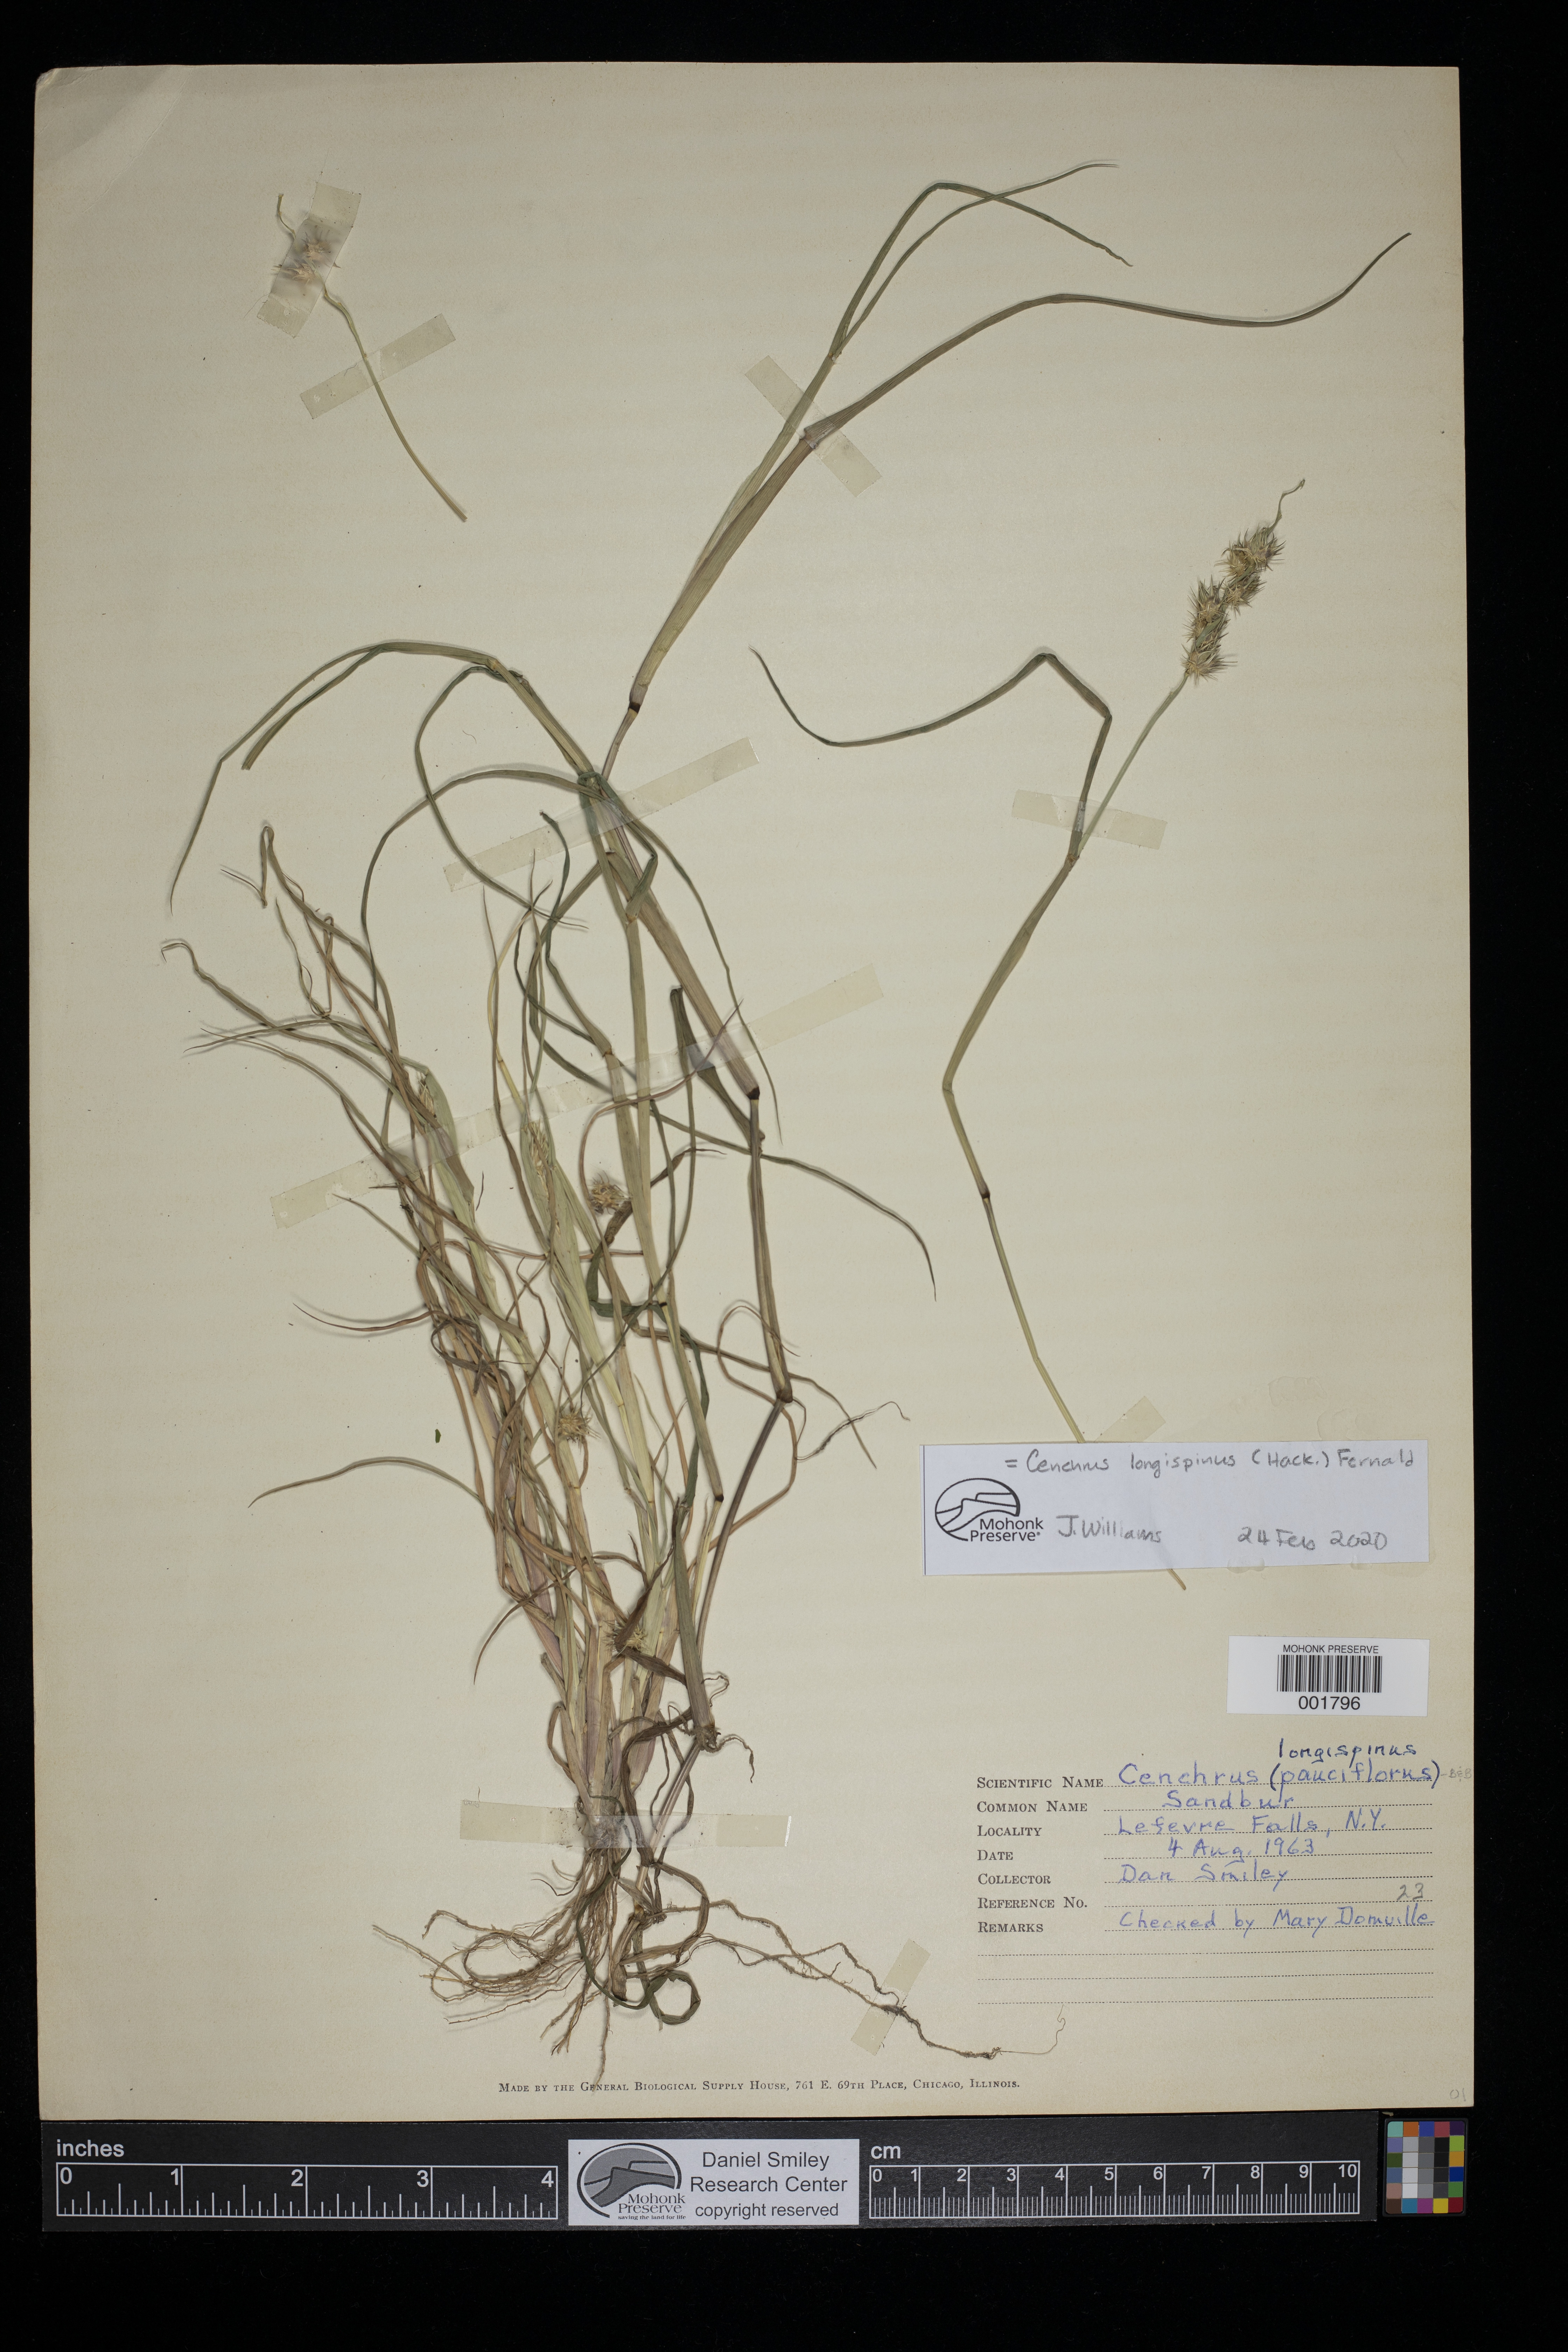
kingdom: Plantae
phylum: Tracheophyta
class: Liliopsida
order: Poales
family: Poaceae
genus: Cenchrus
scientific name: Cenchrus longispinus
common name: Mat sandbur
